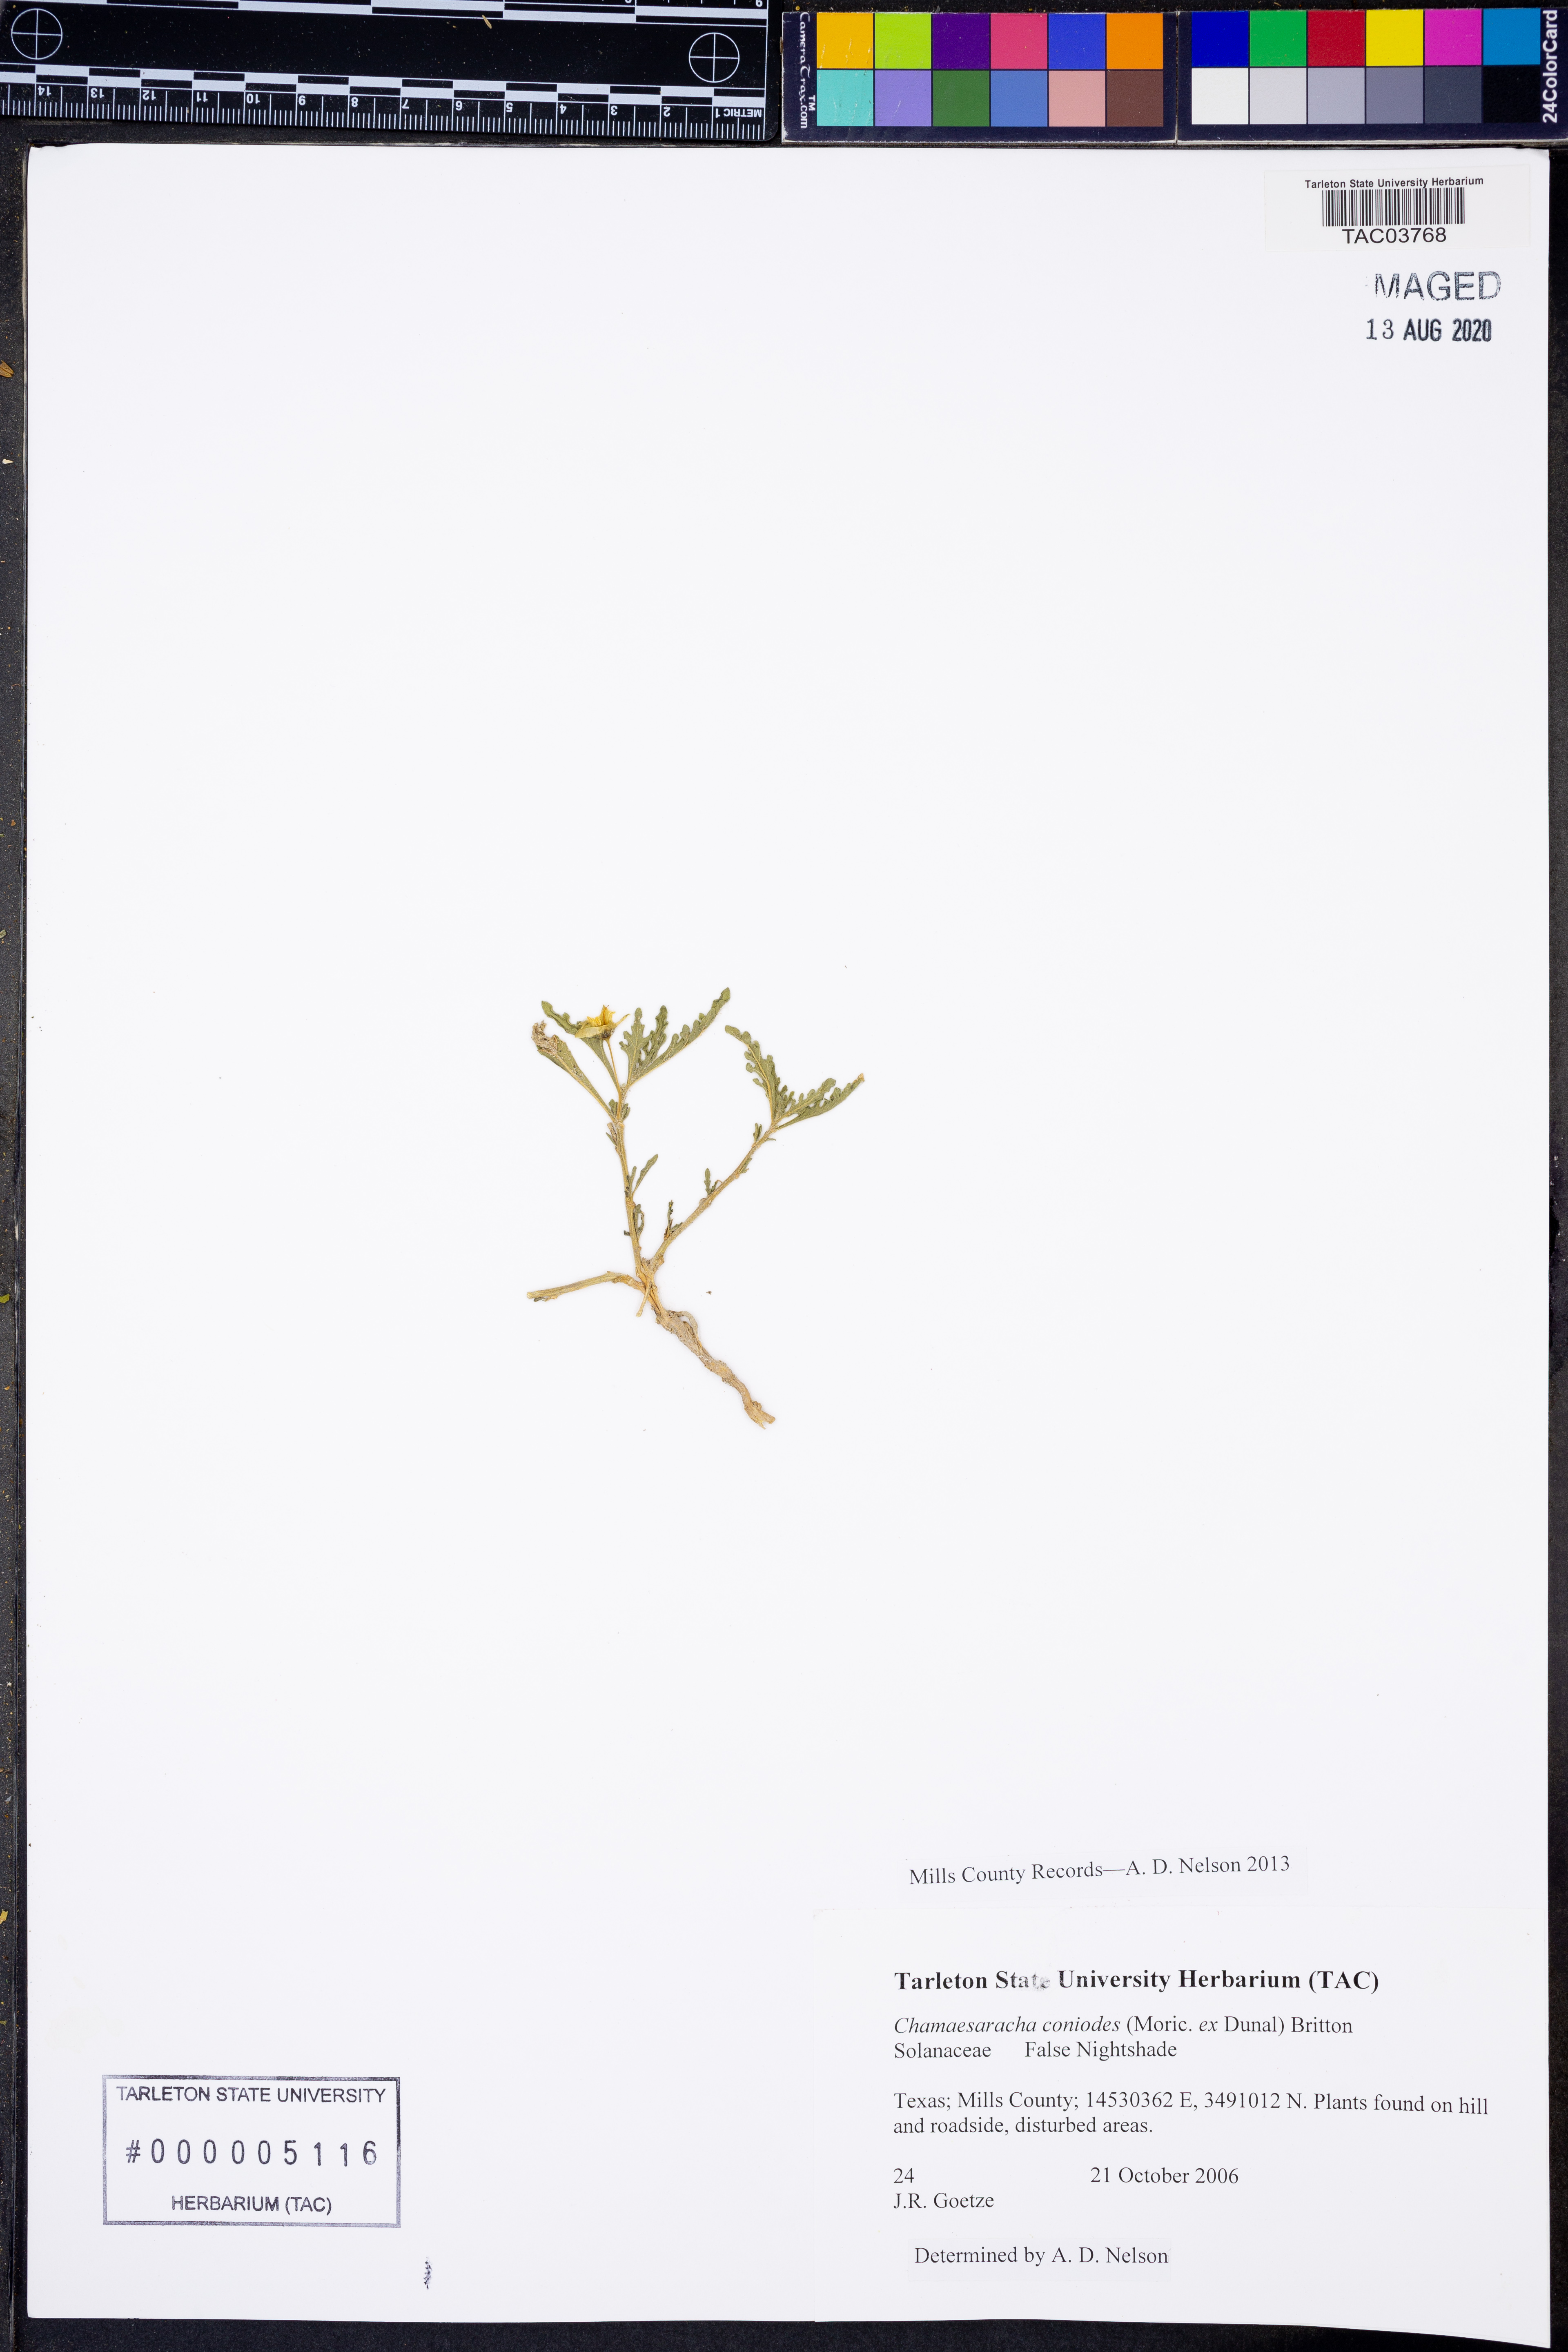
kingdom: Plantae
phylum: Tracheophyta
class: Magnoliopsida
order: Solanales
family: Solanaceae
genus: Chamaesaracha
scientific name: Chamaesaracha coniodes
